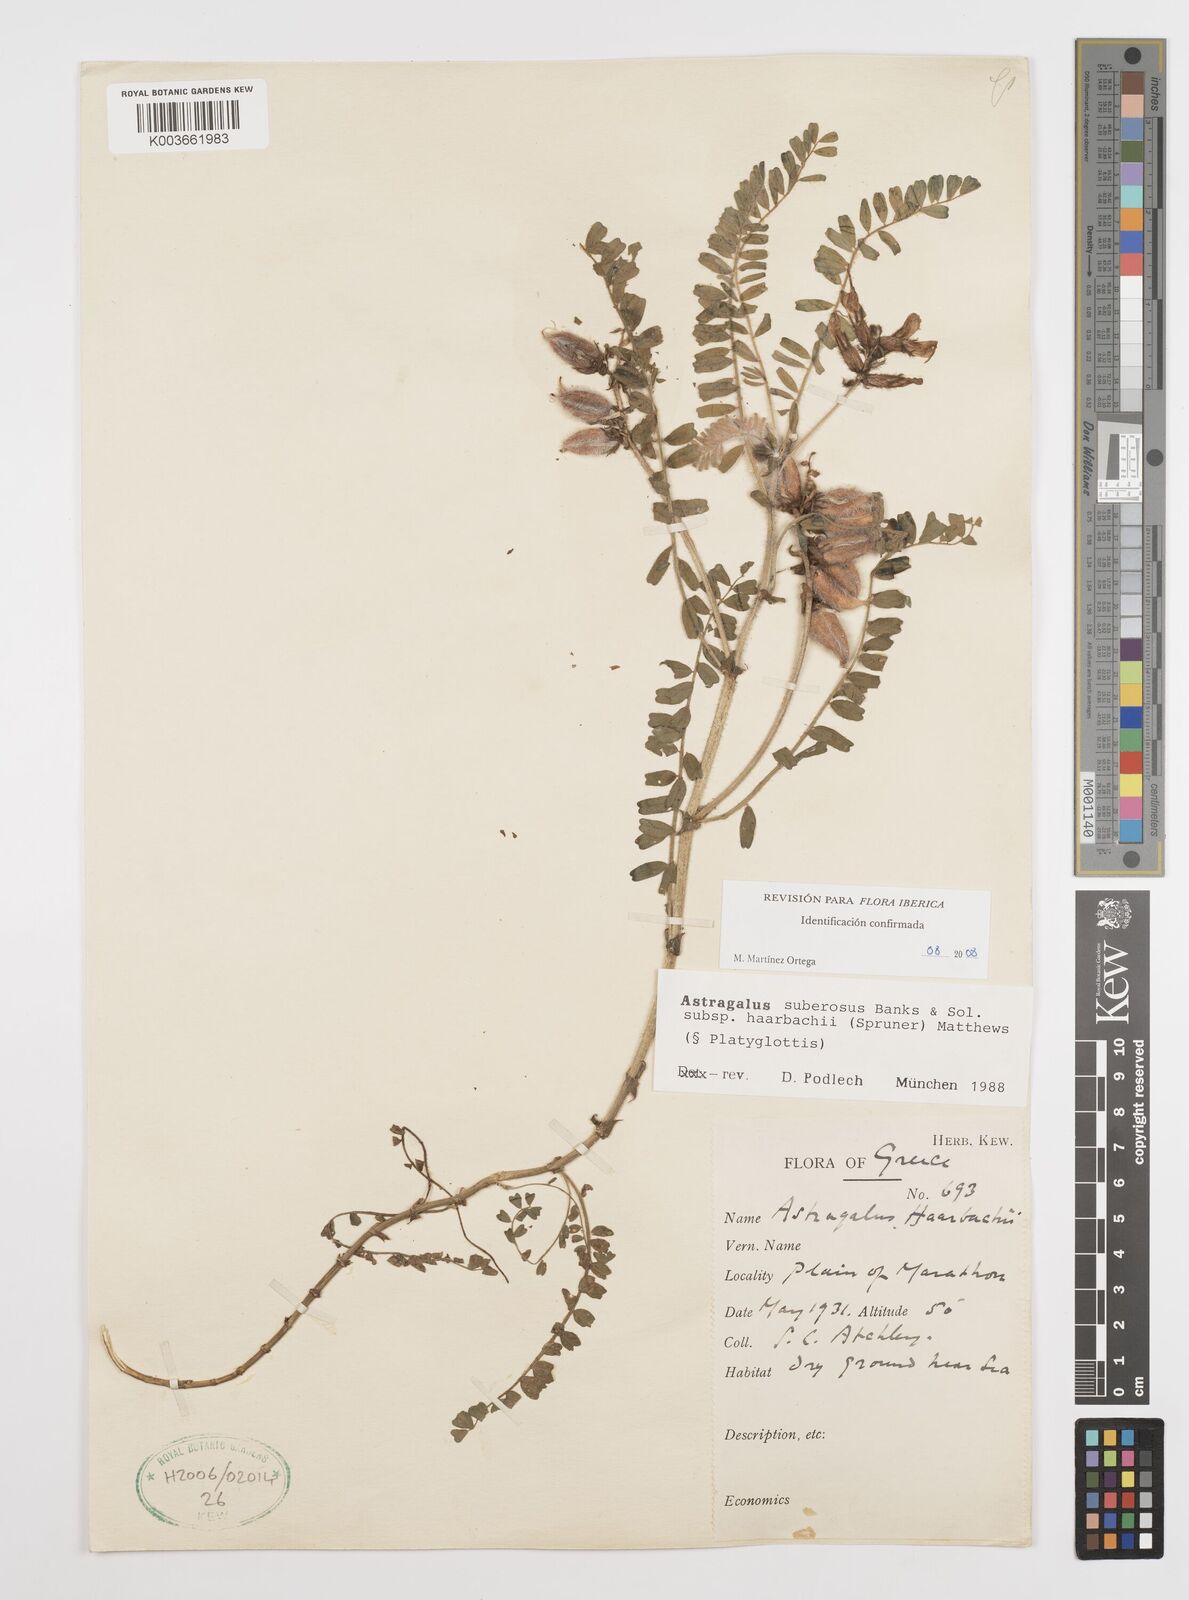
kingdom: Plantae
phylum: Tracheophyta
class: Magnoliopsida
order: Fabales
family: Fabaceae
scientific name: Fabaceae
